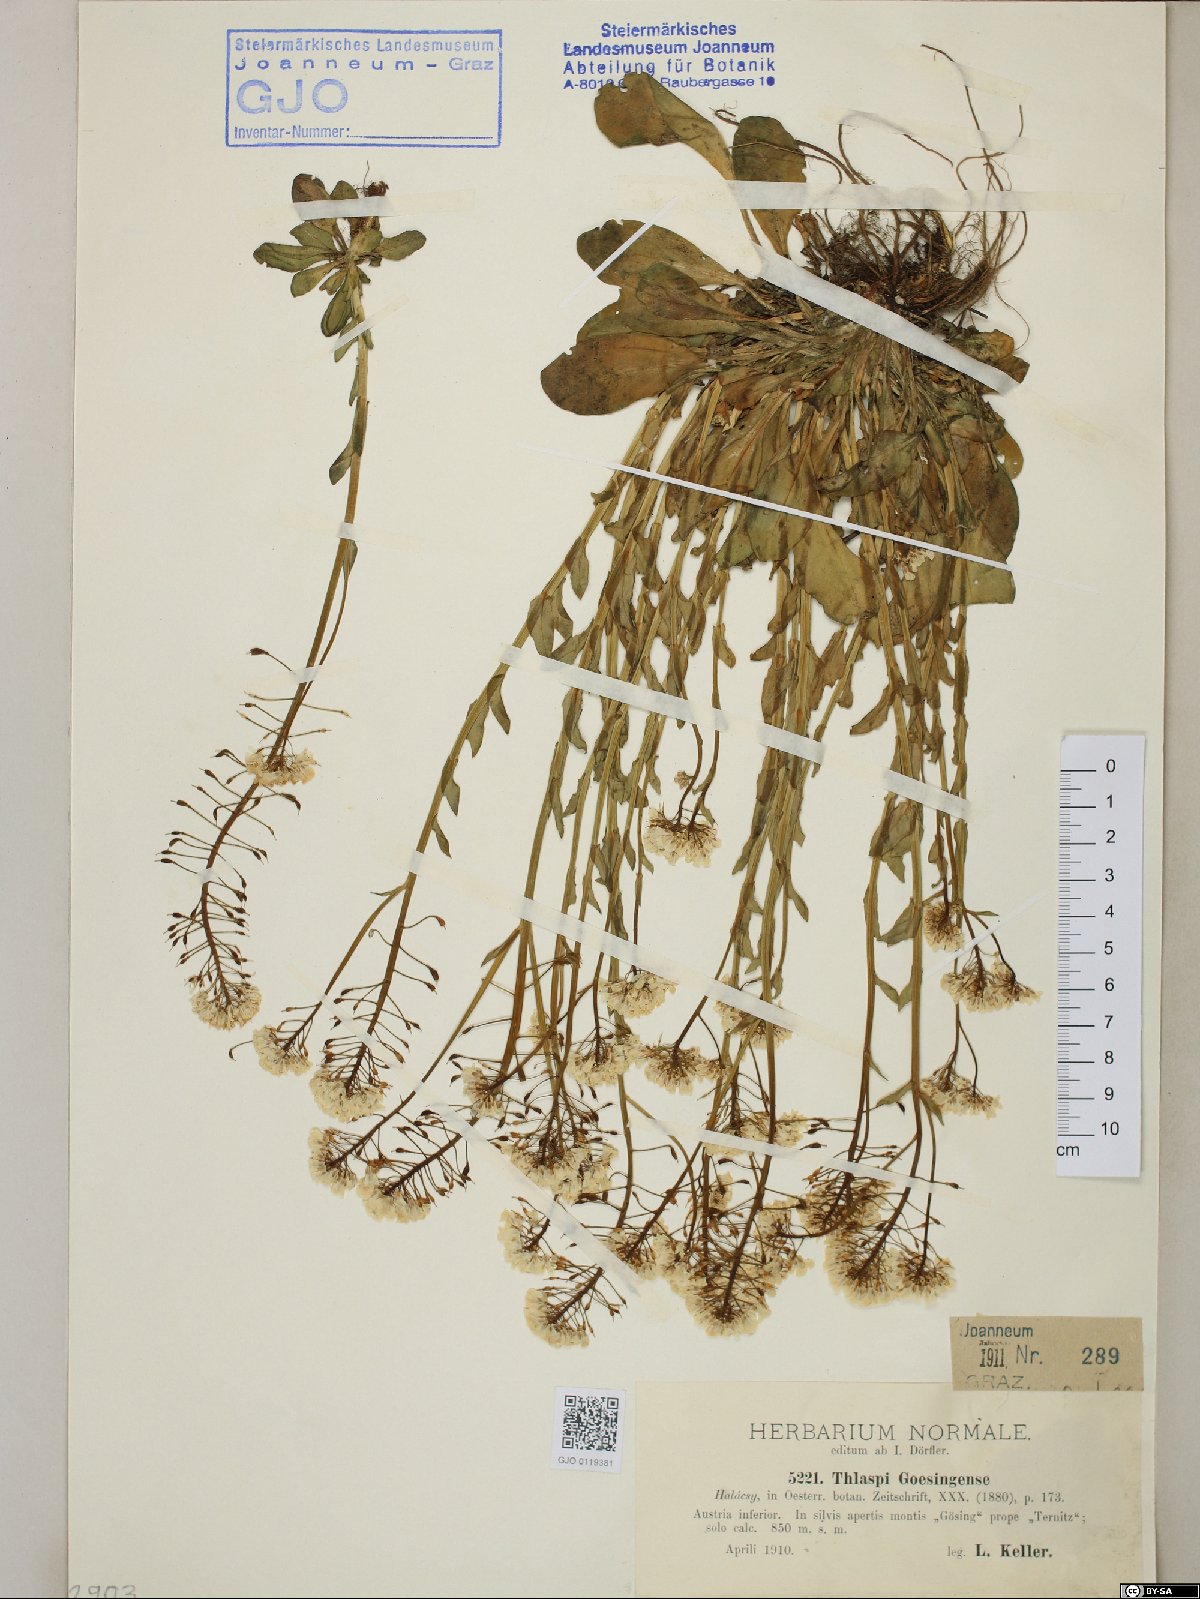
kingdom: Plantae
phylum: Tracheophyta
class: Magnoliopsida
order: Brassicales
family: Brassicaceae
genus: Noccaea
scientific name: Noccaea goesingensis
